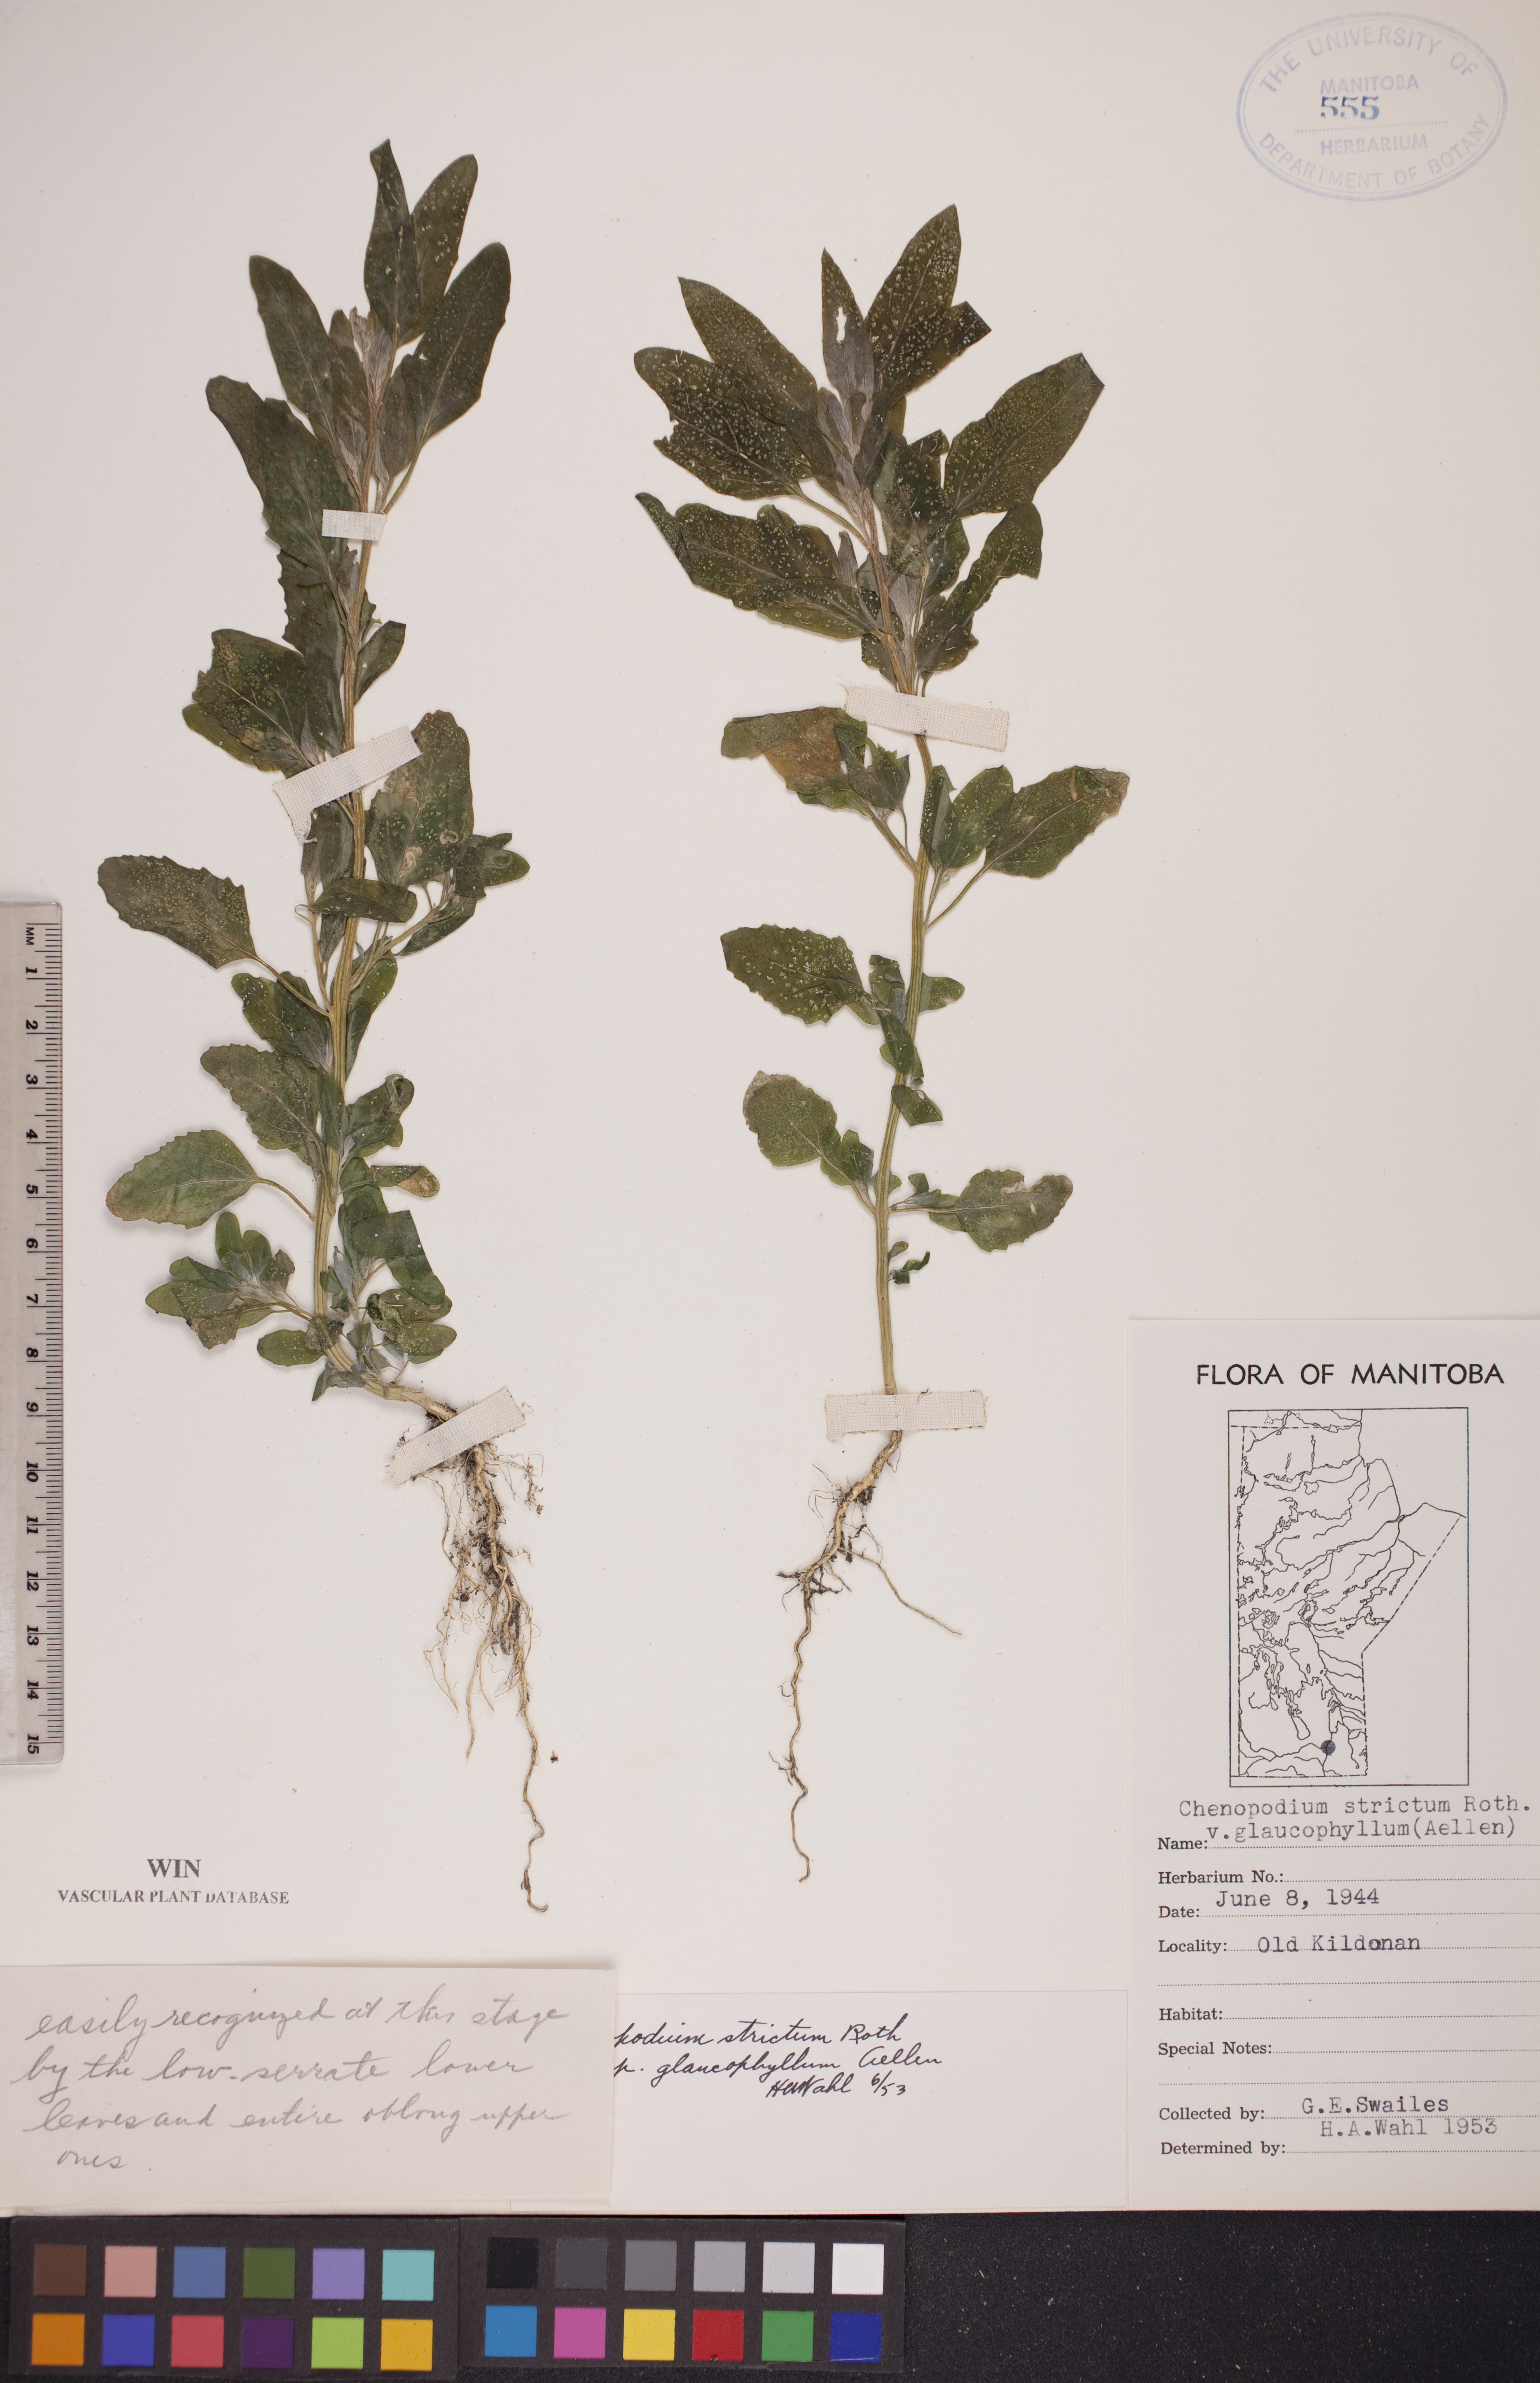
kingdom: Plantae
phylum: Tracheophyta
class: Magnoliopsida
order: Caryophyllales
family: Amaranthaceae
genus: Chenopodium
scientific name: Chenopodium betaceum
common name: Striped goosefoot
